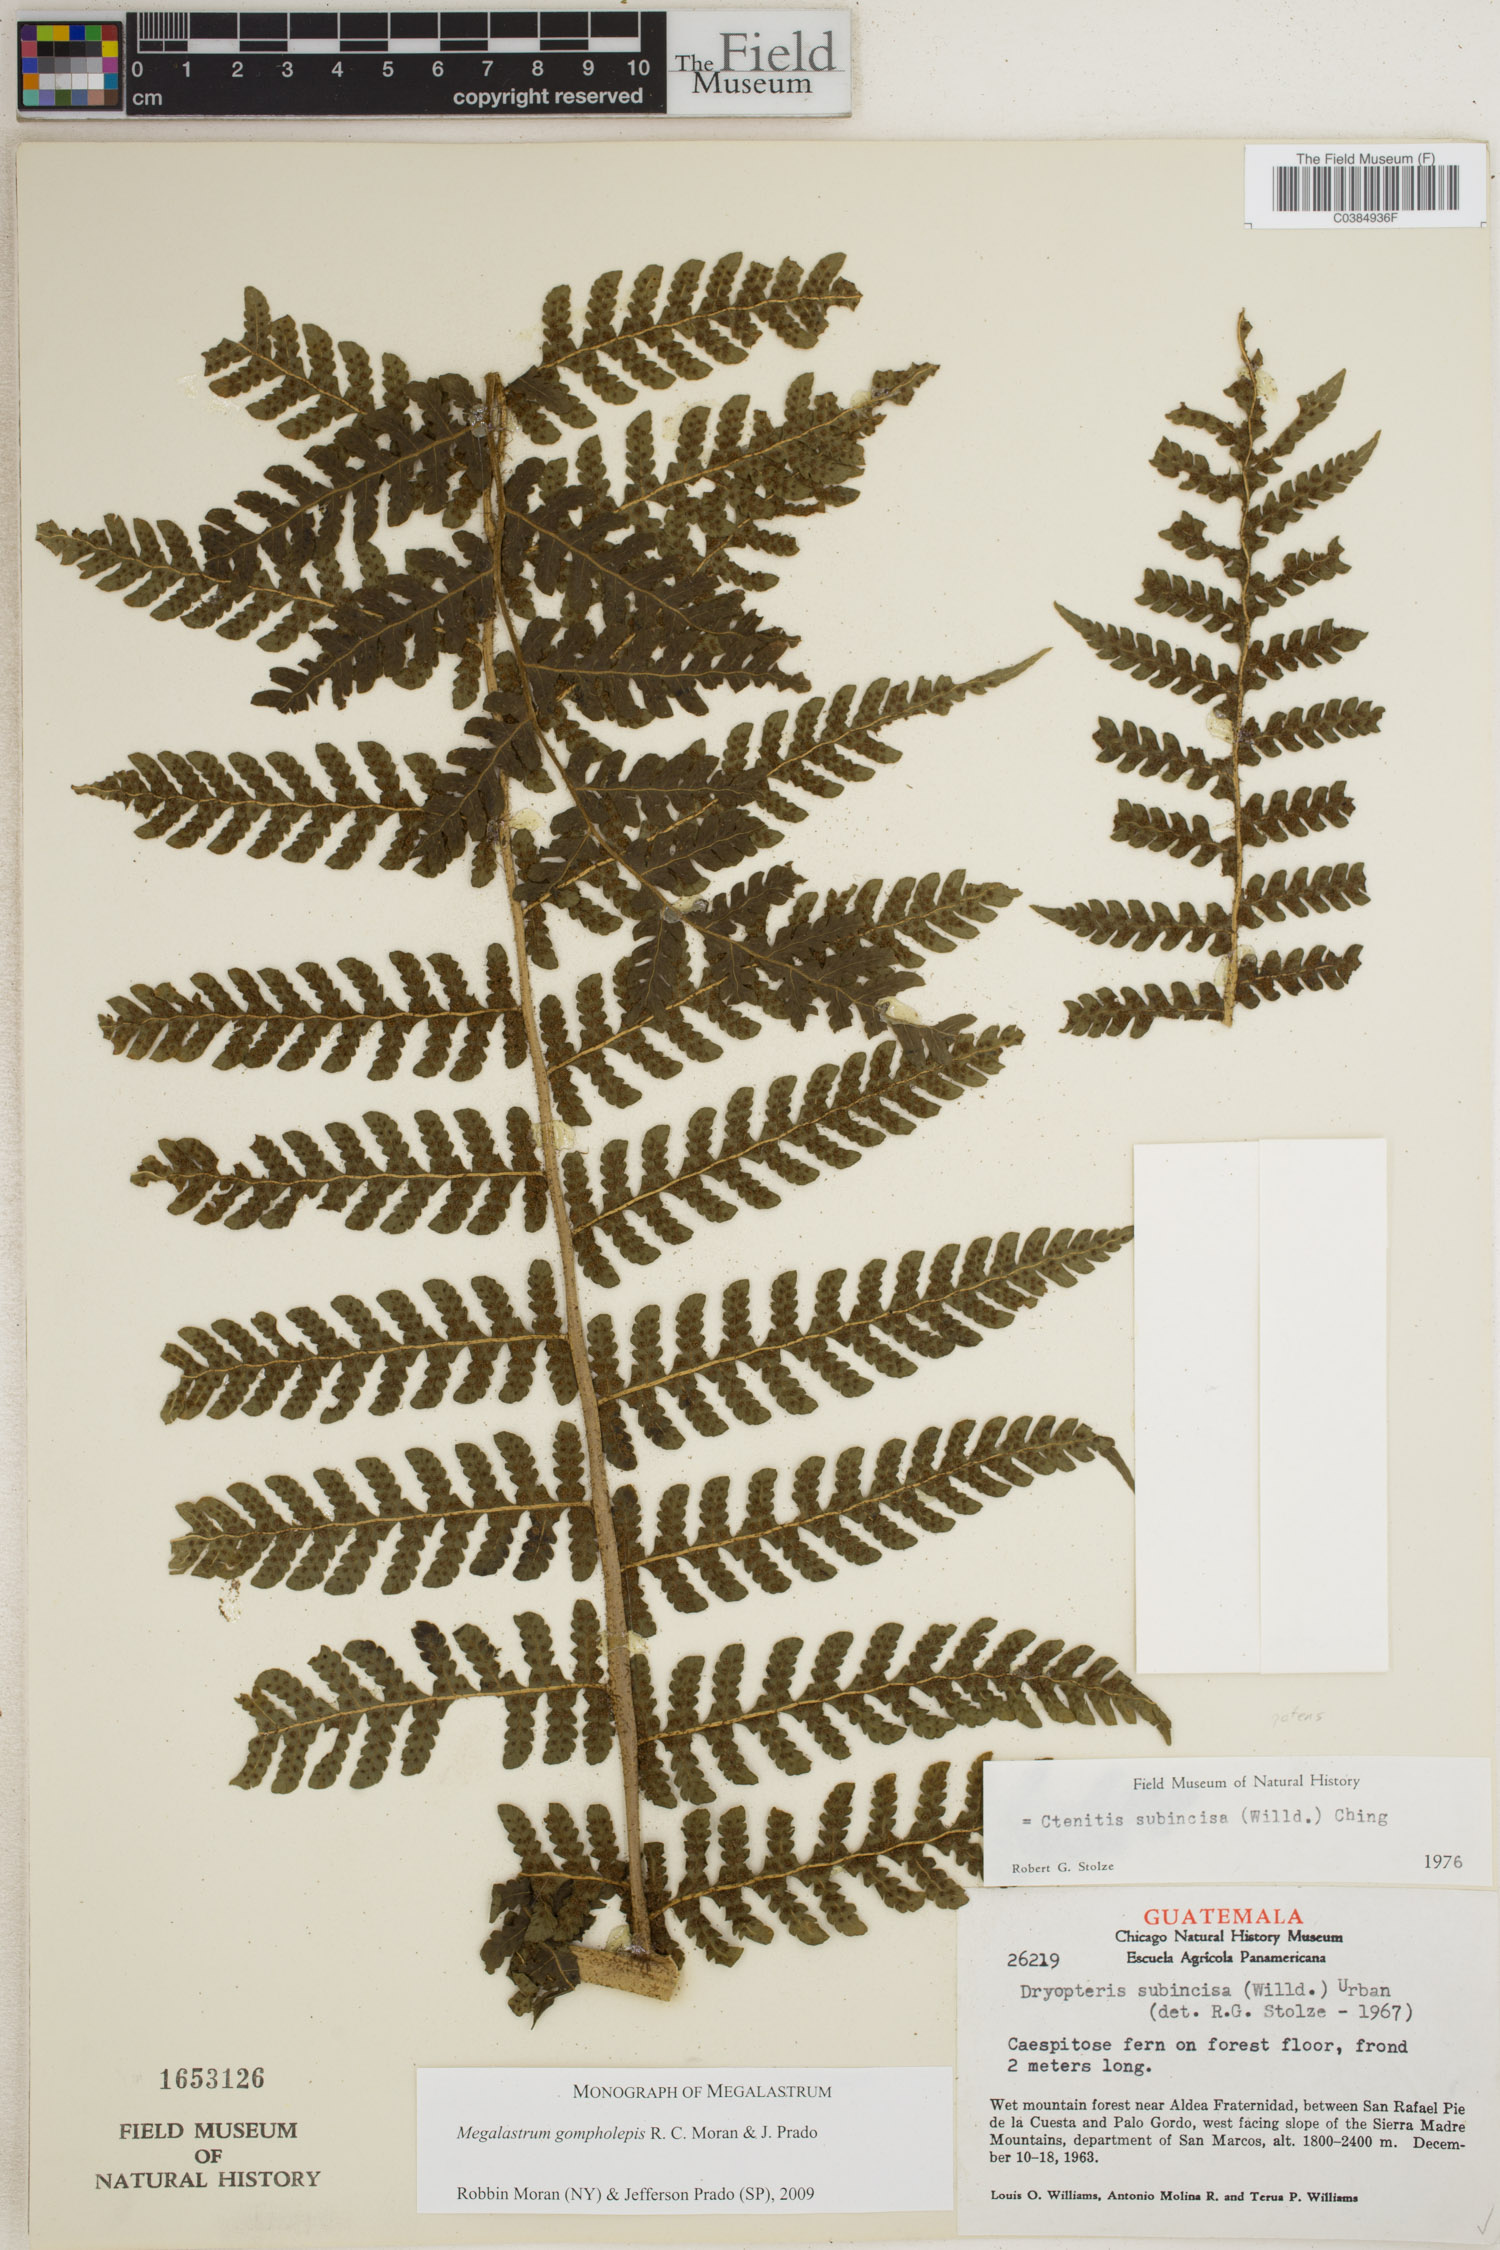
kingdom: Plantae
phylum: Tracheophyta
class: Polypodiopsida
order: Polypodiales
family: Dryopteridaceae
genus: Megalastrum
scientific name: Megalastrum gompholepis
